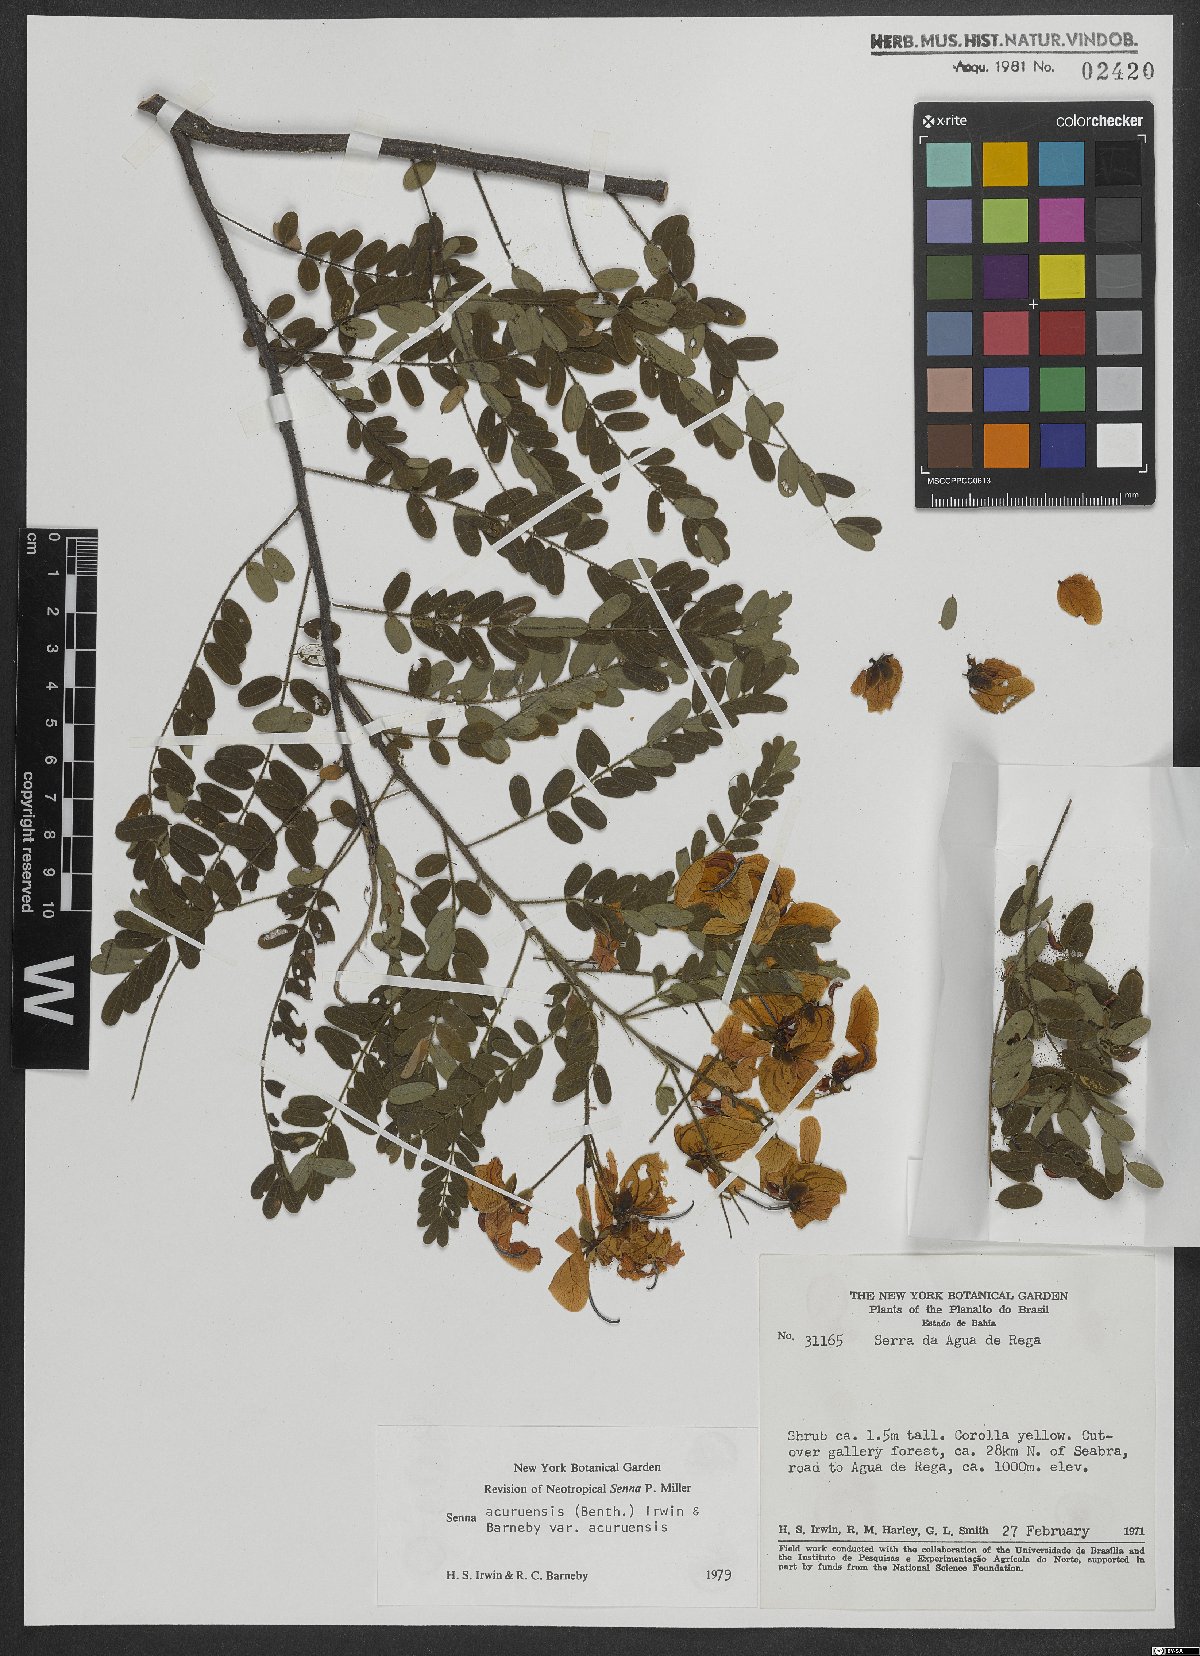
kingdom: Plantae
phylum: Tracheophyta
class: Magnoliopsida
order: Fabales
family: Fabaceae
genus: Senna
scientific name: Senna acuruensis
